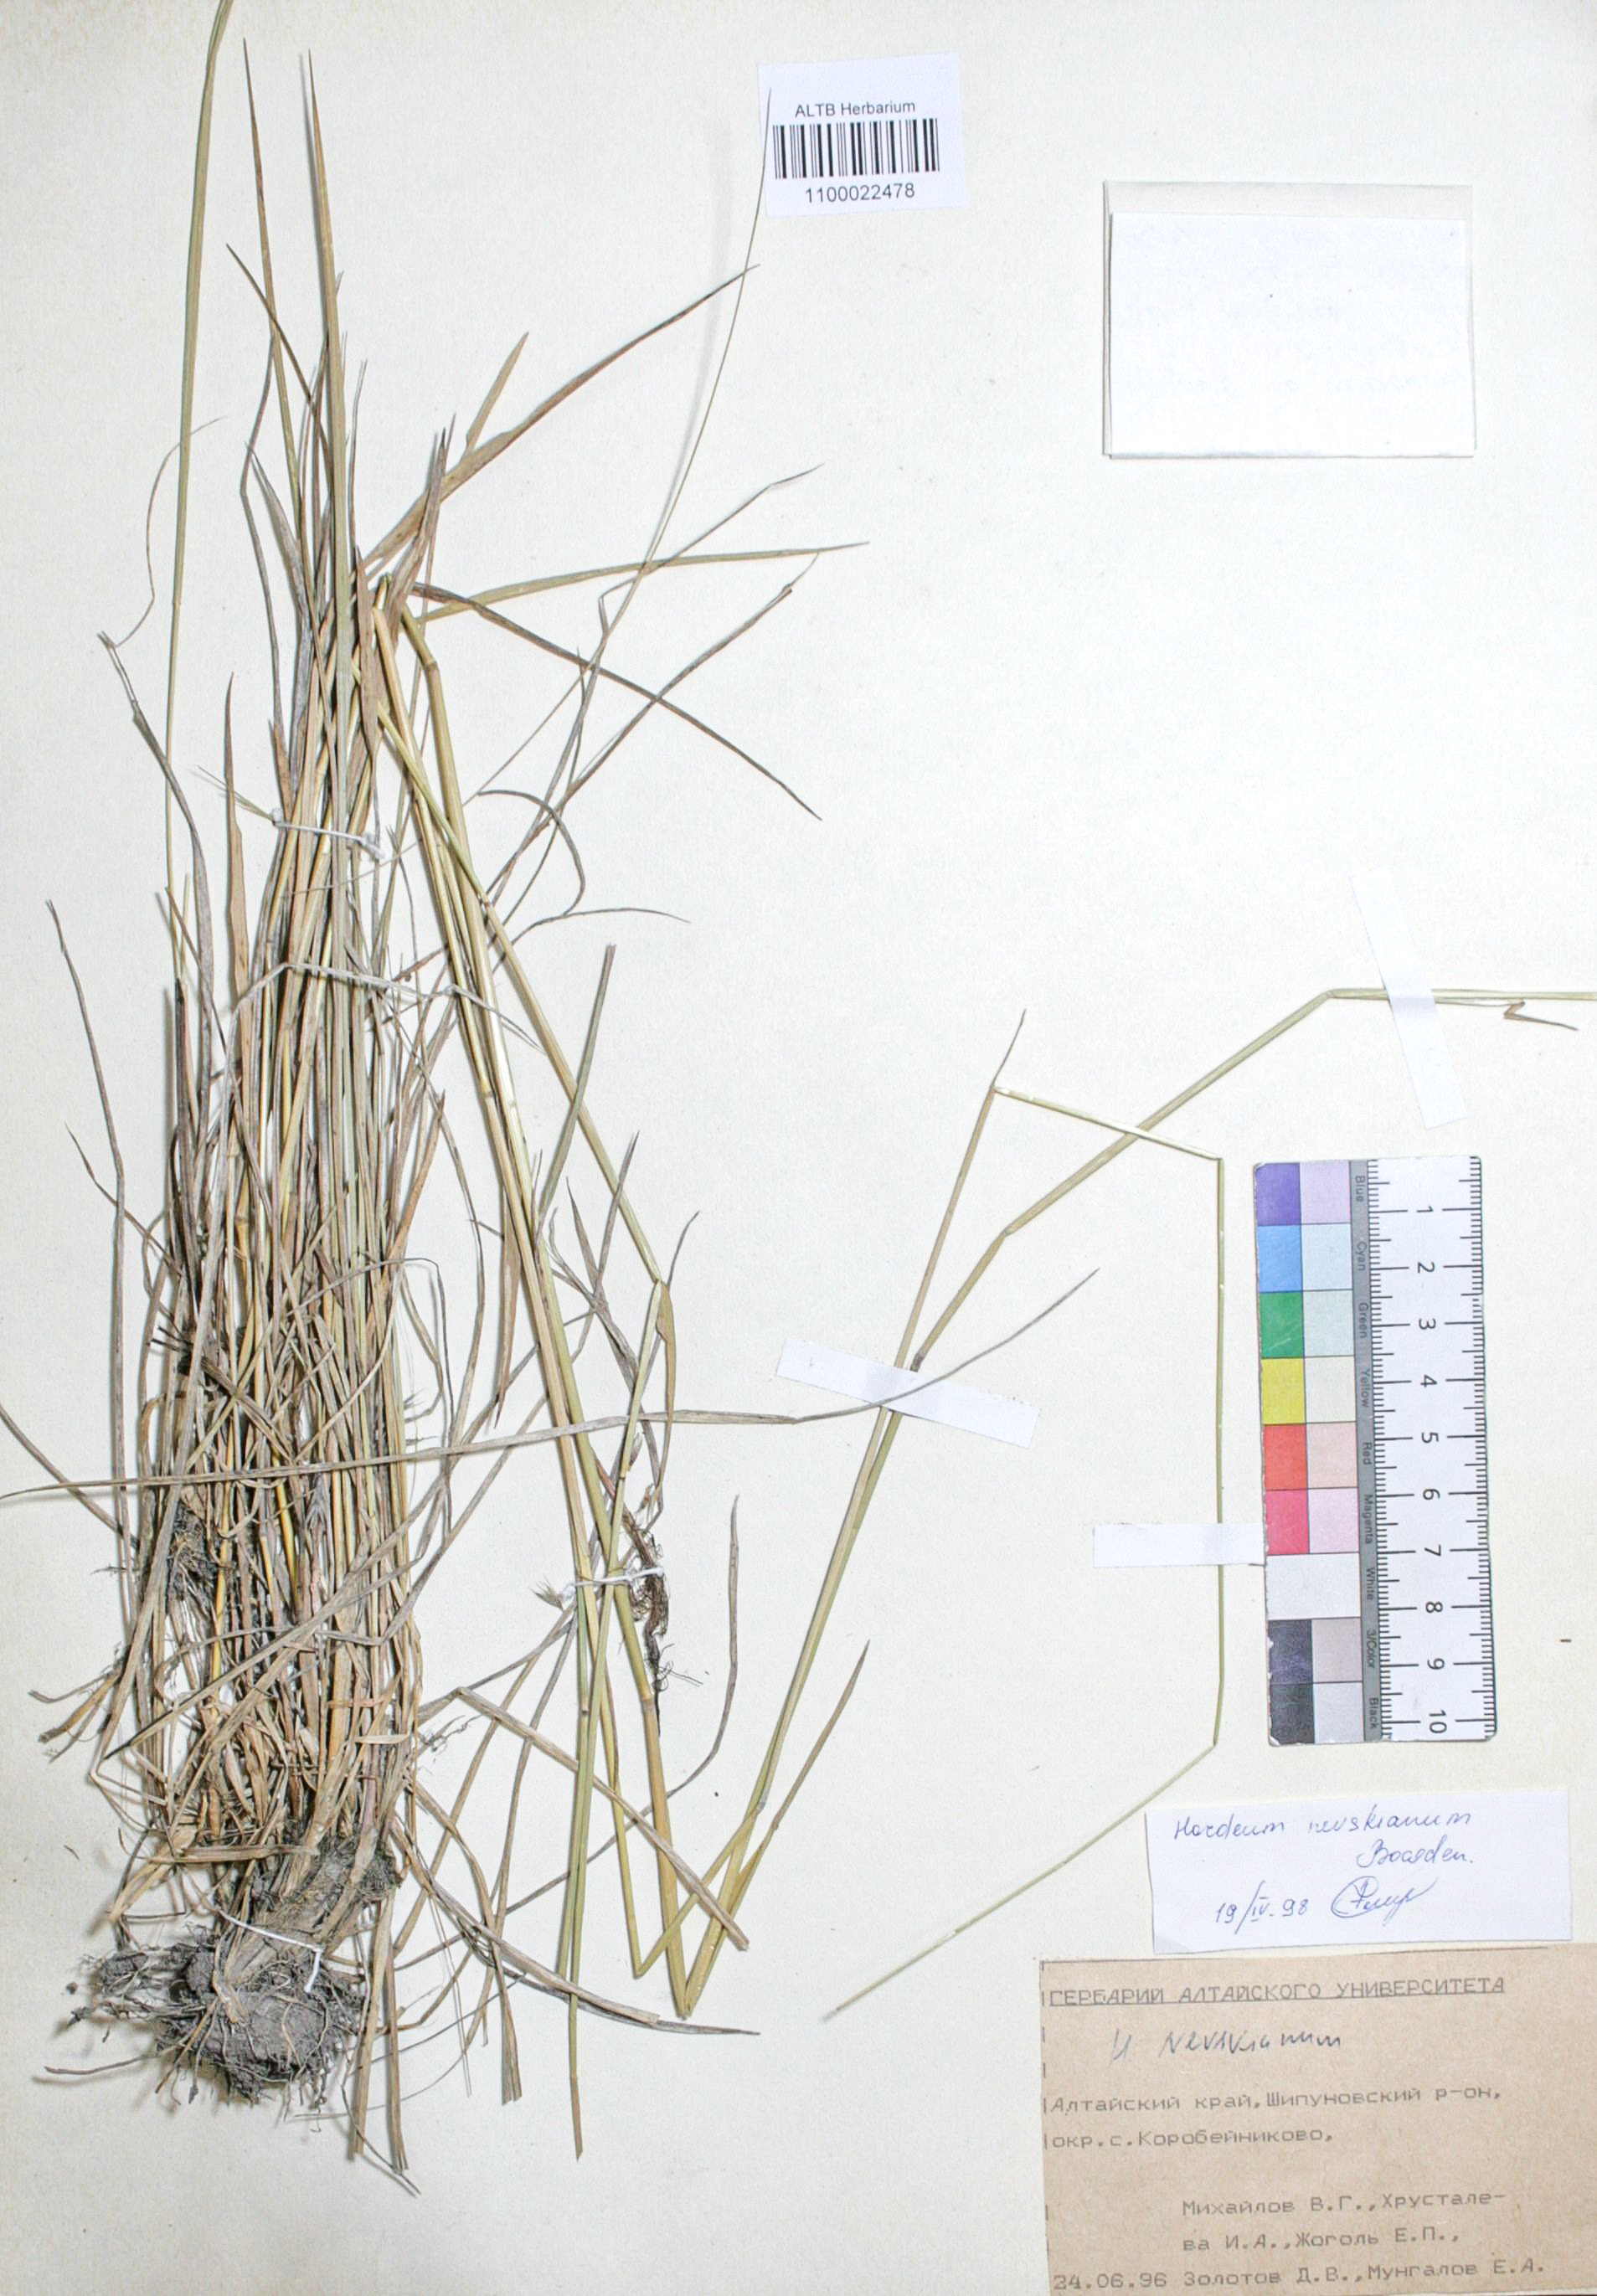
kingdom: Plantae
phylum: Tracheophyta
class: Liliopsida
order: Poales
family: Poaceae
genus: Hordeum
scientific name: Hordeum brevisubulatum
